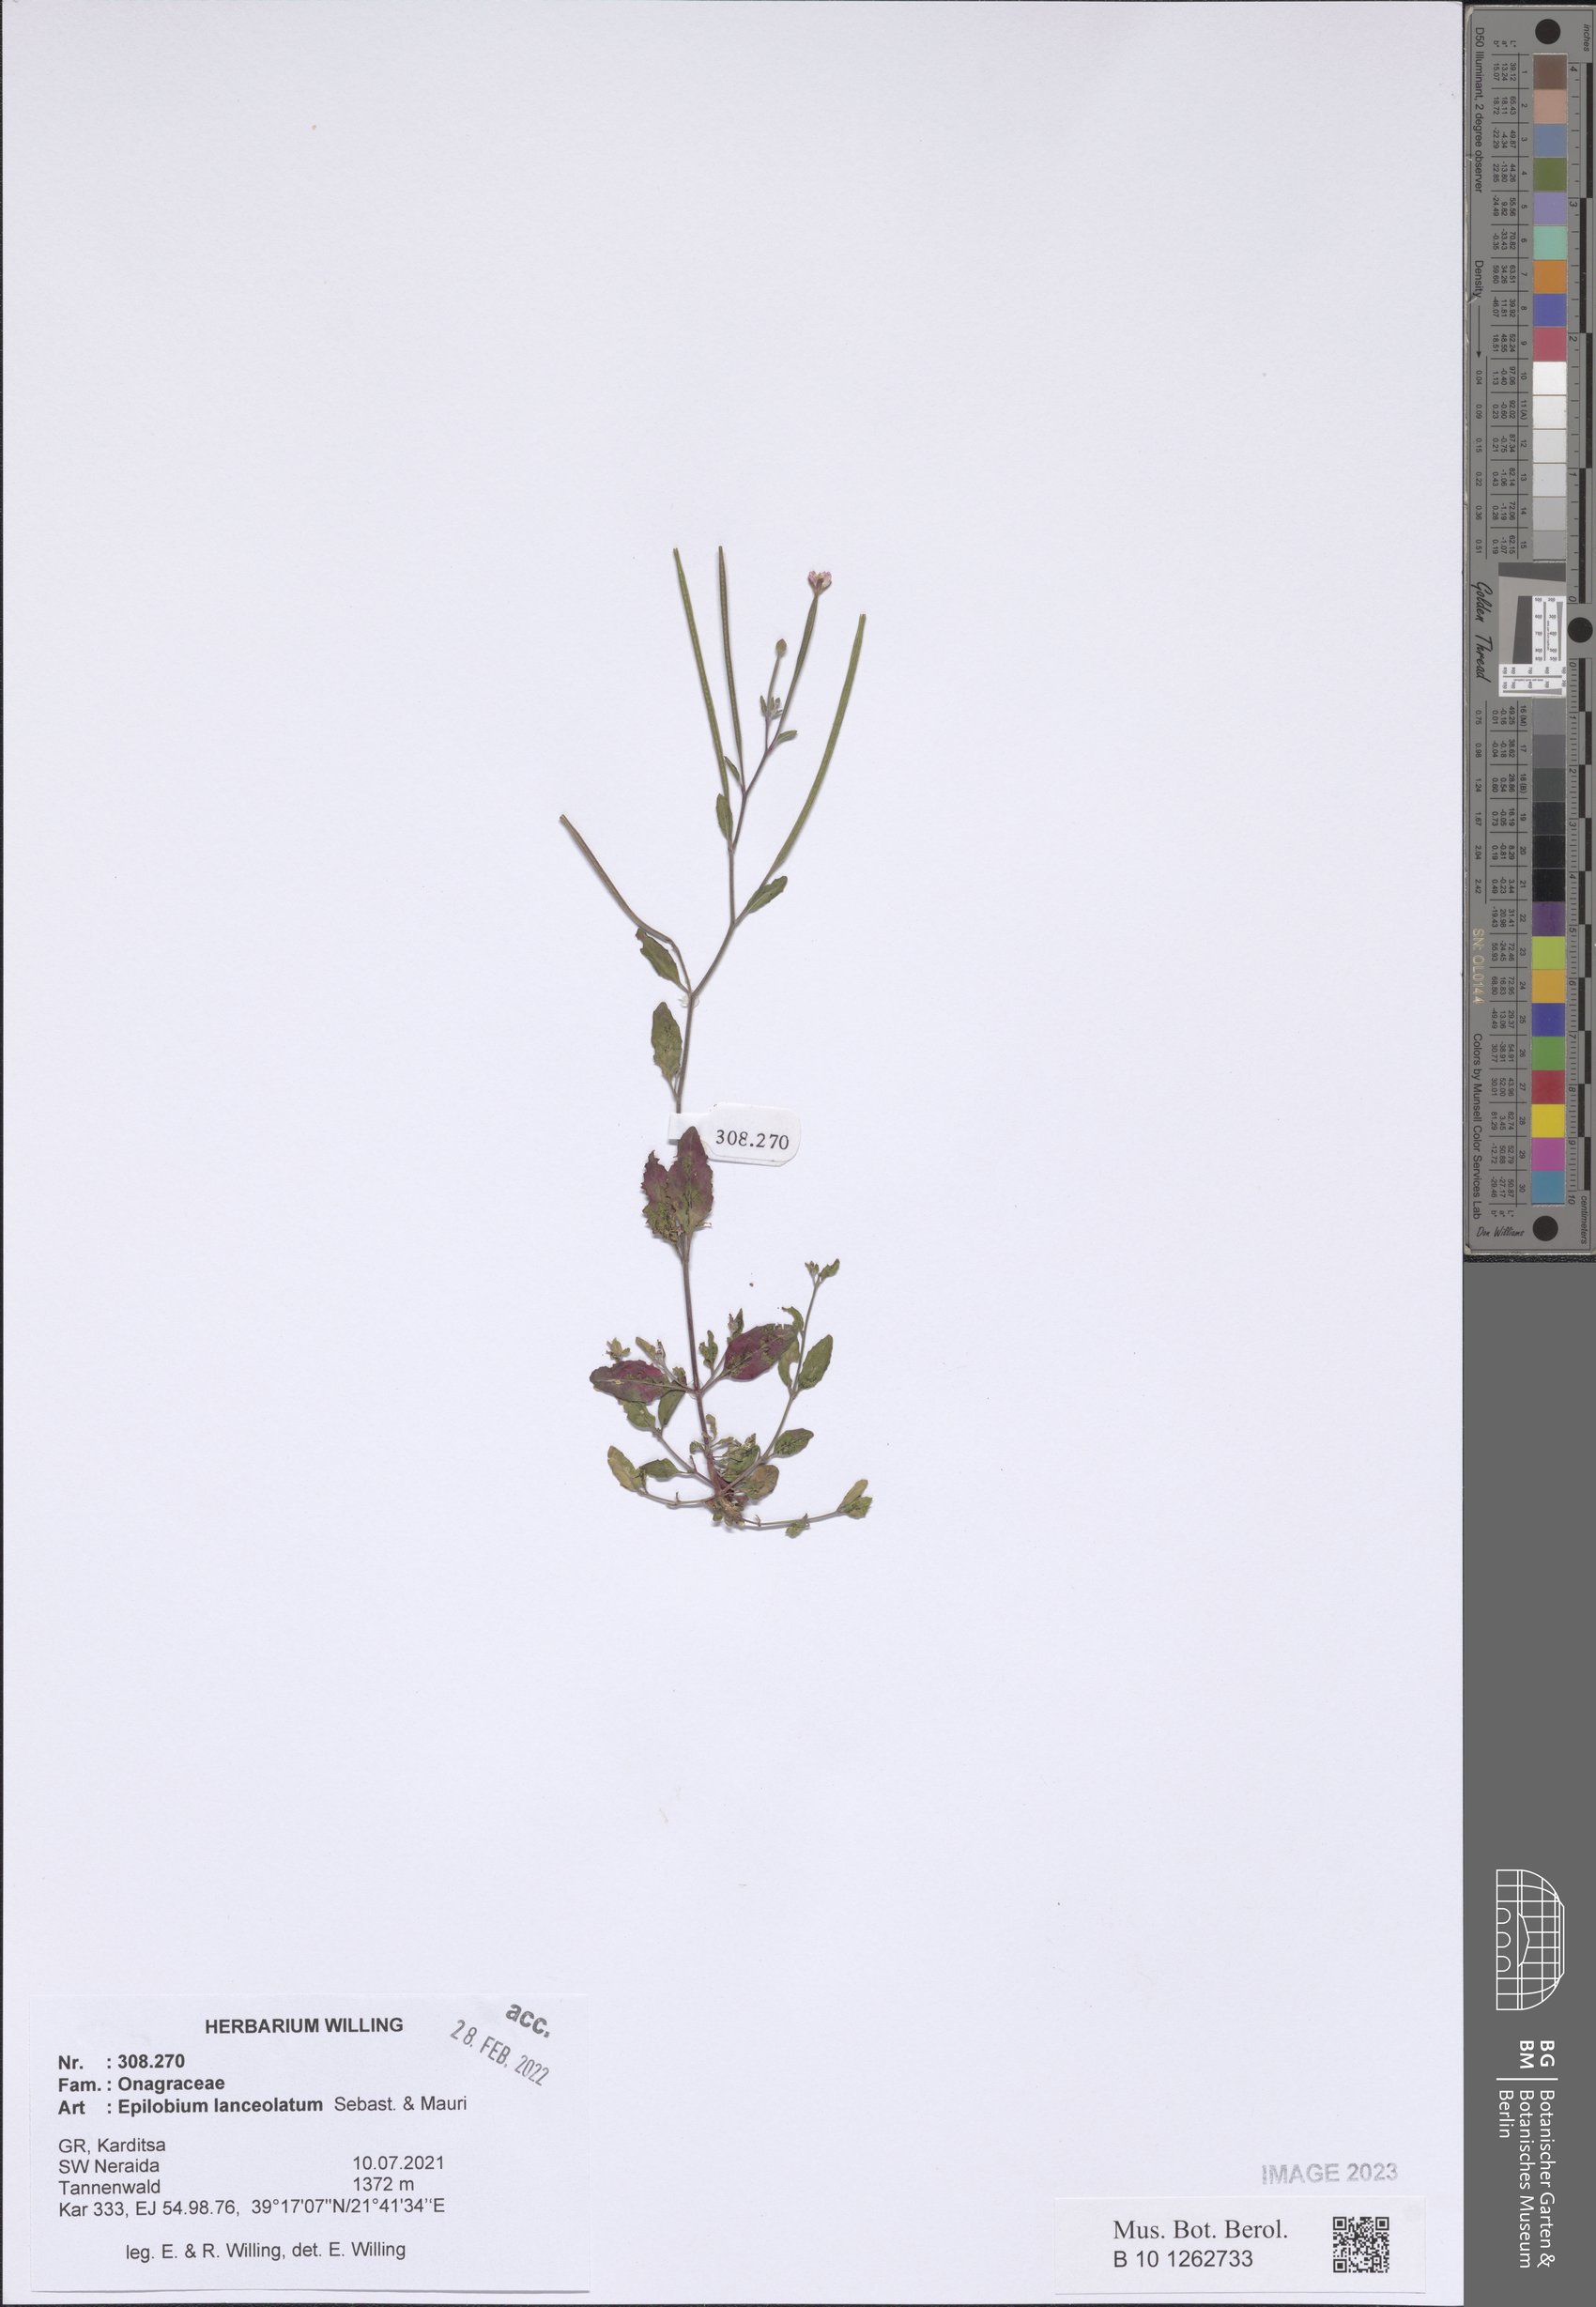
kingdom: Plantae
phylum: Tracheophyta
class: Magnoliopsida
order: Myrtales
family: Onagraceae
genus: Epilobium
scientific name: Epilobium lanceolatum
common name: Spear-leaved willowherb
